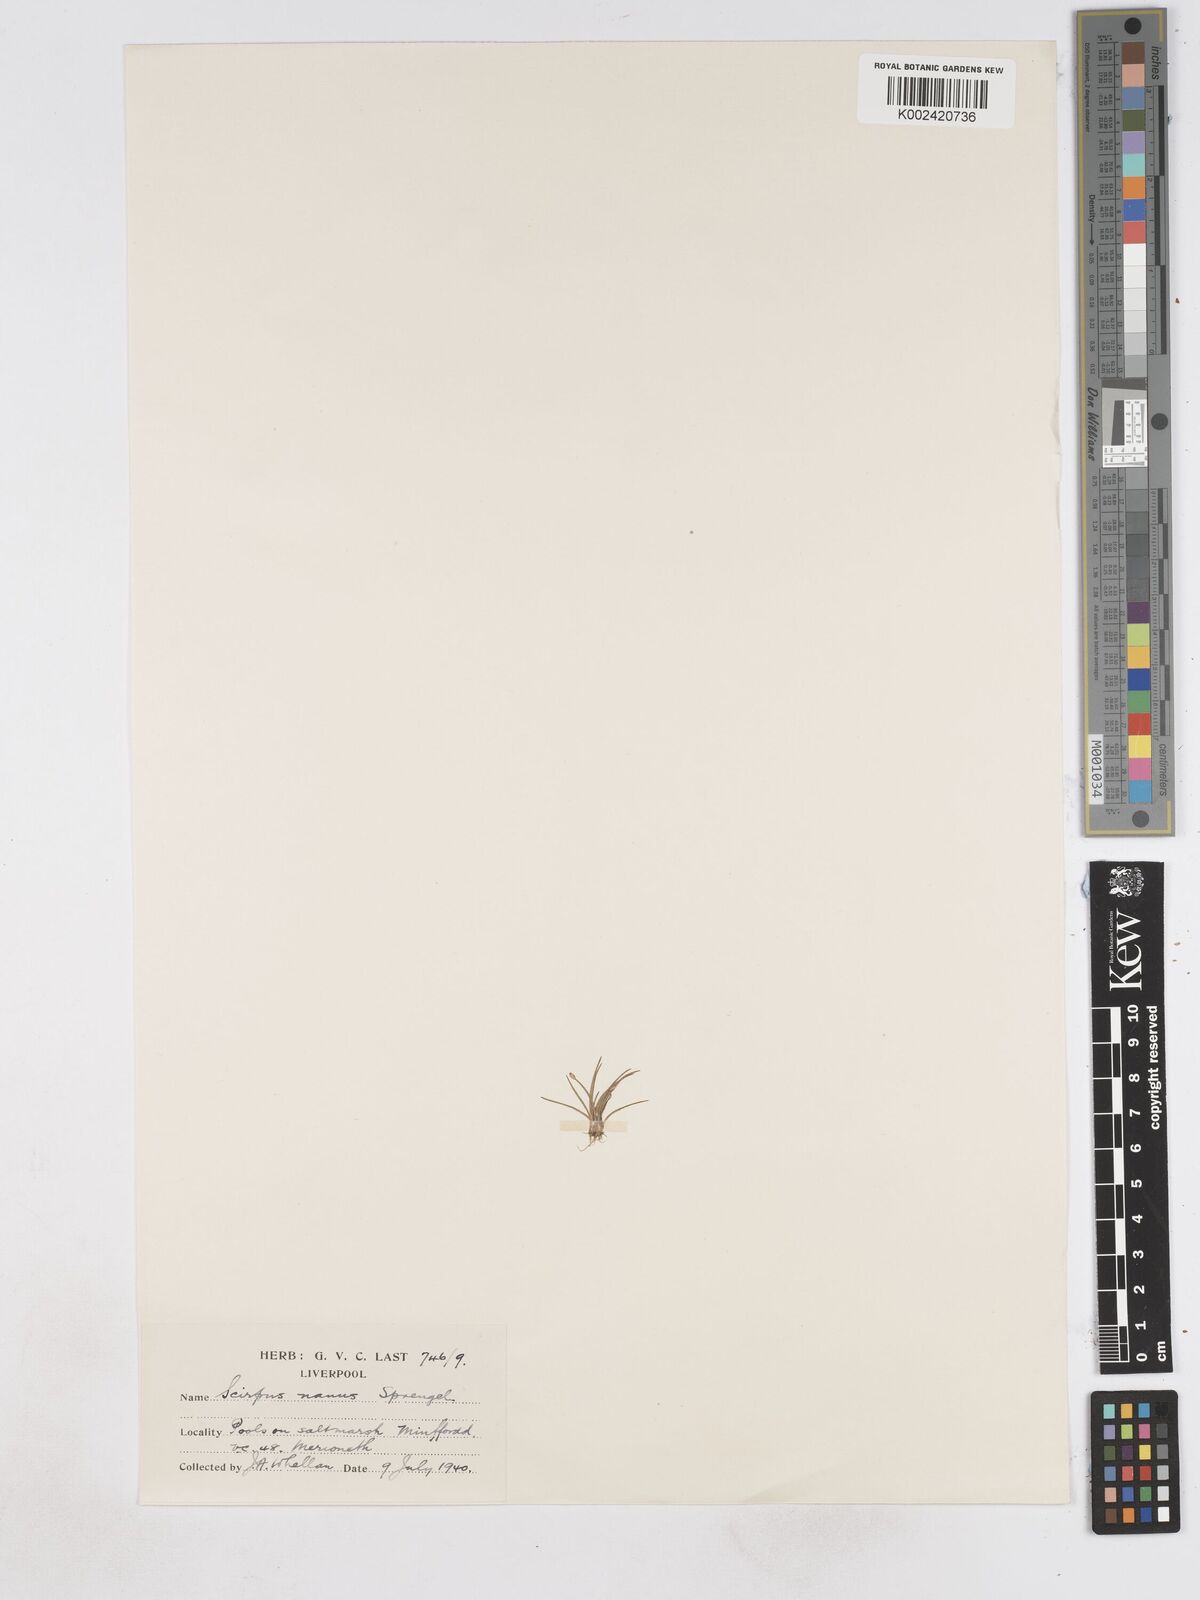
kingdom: Plantae
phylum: Tracheophyta
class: Liliopsida
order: Poales
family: Cyperaceae
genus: Eleocharis
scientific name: Eleocharis parvula
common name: Dwarf spike-rush
